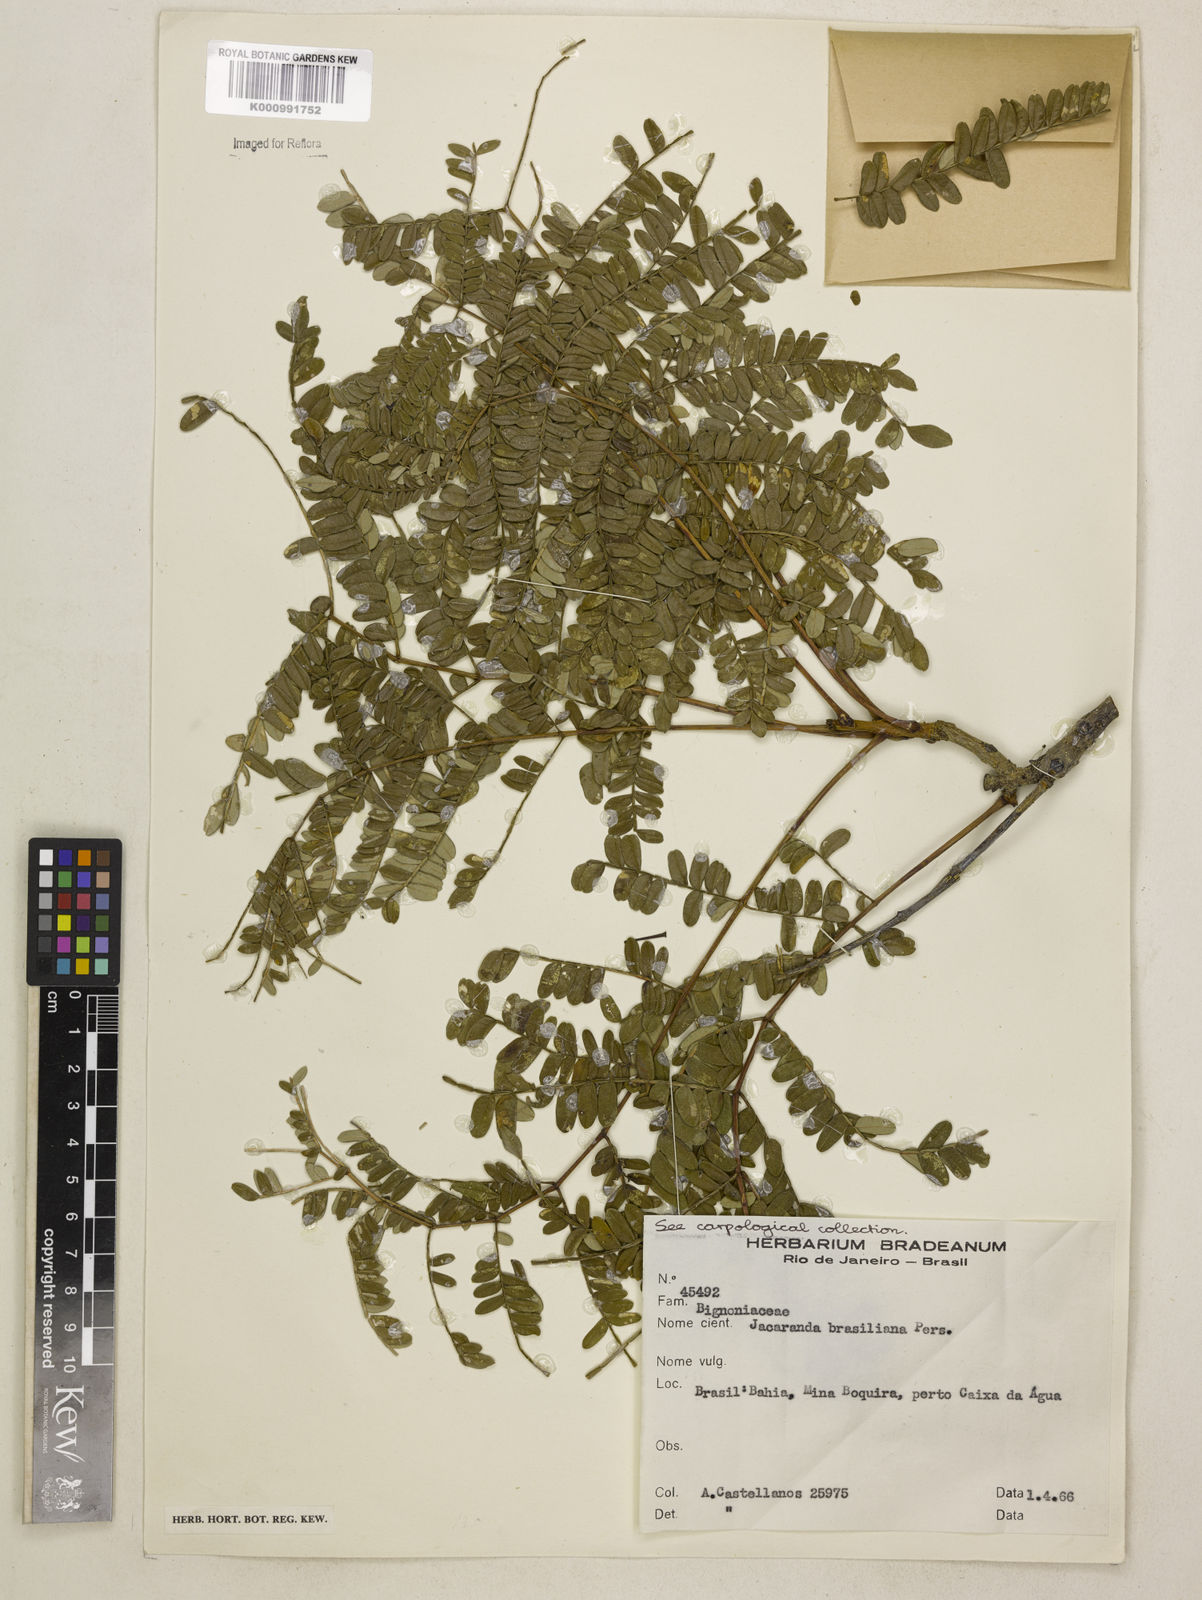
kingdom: Plantae
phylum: Tracheophyta
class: Magnoliopsida
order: Lamiales
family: Bignoniaceae
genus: Jacaranda
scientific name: Jacaranda brasiliana
